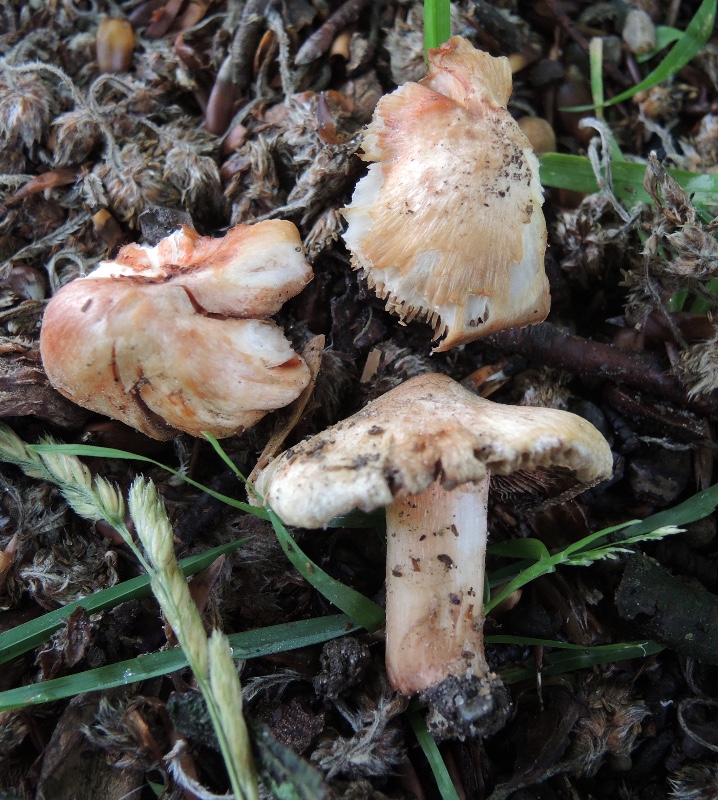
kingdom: Fungi
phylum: Basidiomycota
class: Agaricomycetes
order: Agaricales
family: Inocybaceae
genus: Inosperma
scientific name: Inosperma erubescens
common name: giftig trævlhat
